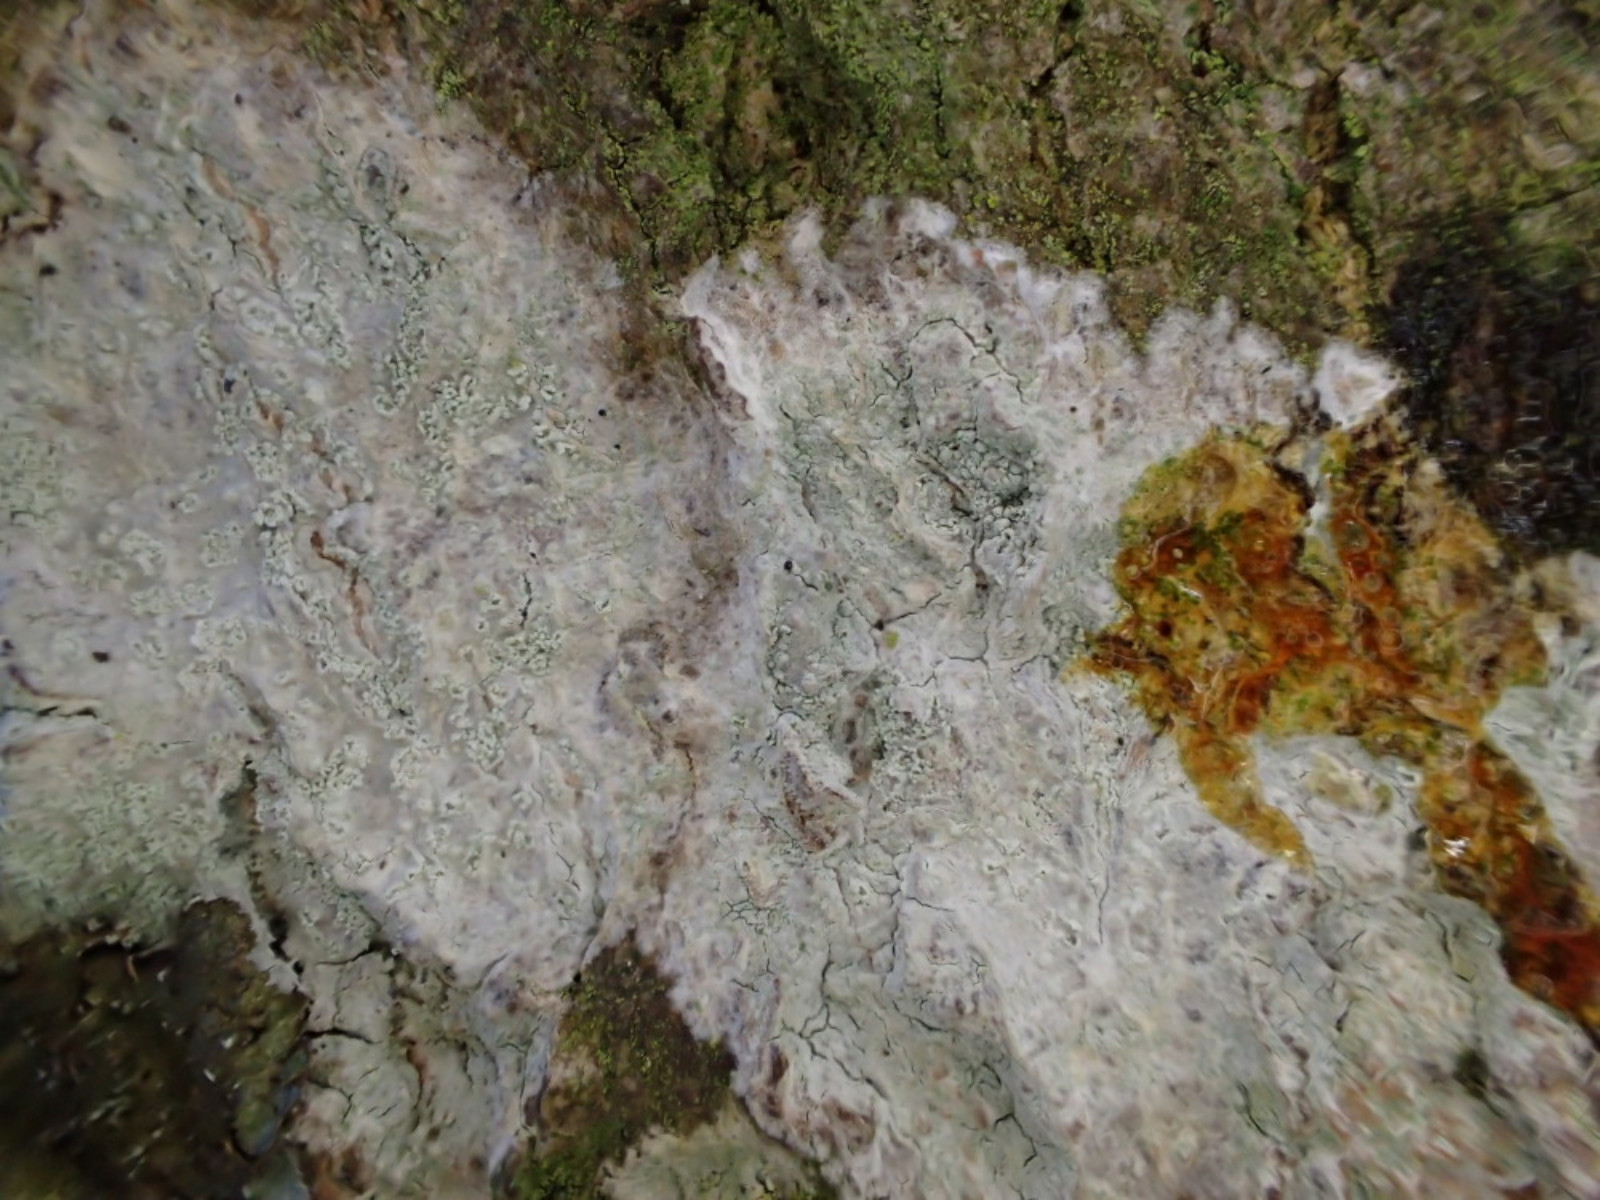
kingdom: Fungi
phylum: Ascomycota
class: Lecanoromycetes
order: Ostropales
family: Phlyctidaceae
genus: Phlyctis
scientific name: Phlyctis argena
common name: almindelig sølvlav
